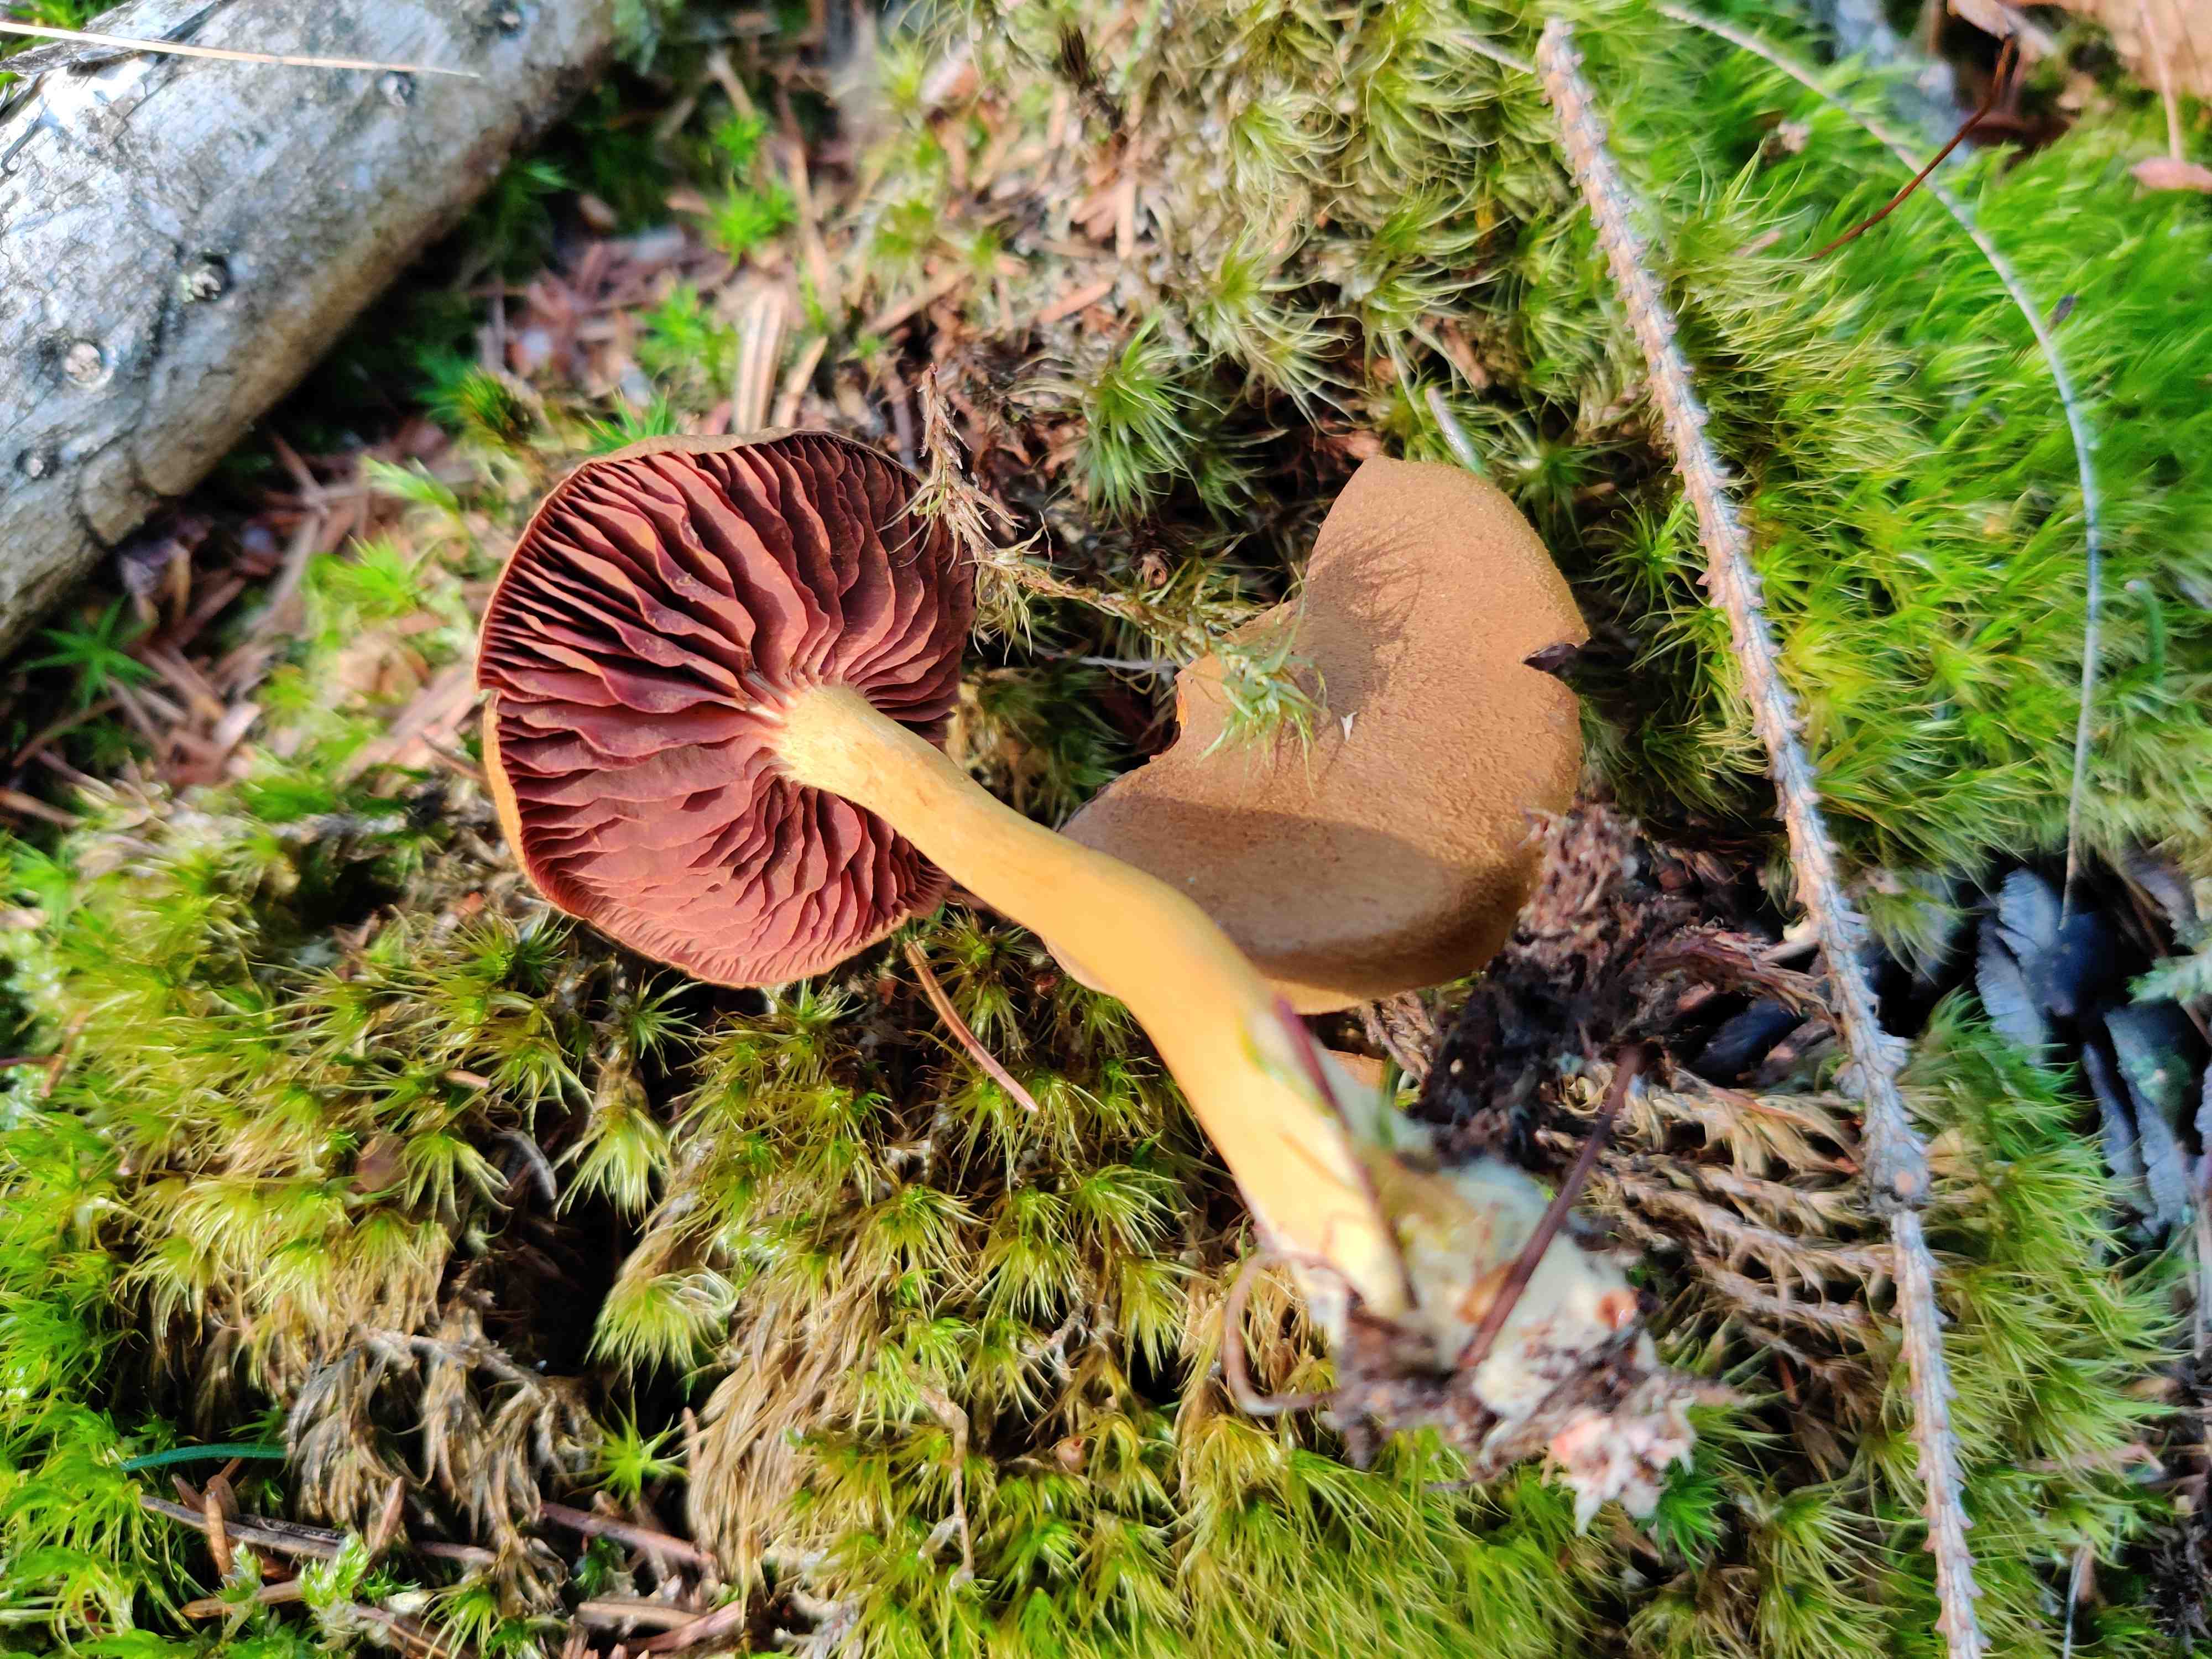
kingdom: Fungi
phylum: Basidiomycota
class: Agaricomycetes
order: Agaricales
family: Cortinariaceae
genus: Cortinarius
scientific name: Cortinarius
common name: cinnoberbladet slørhat
